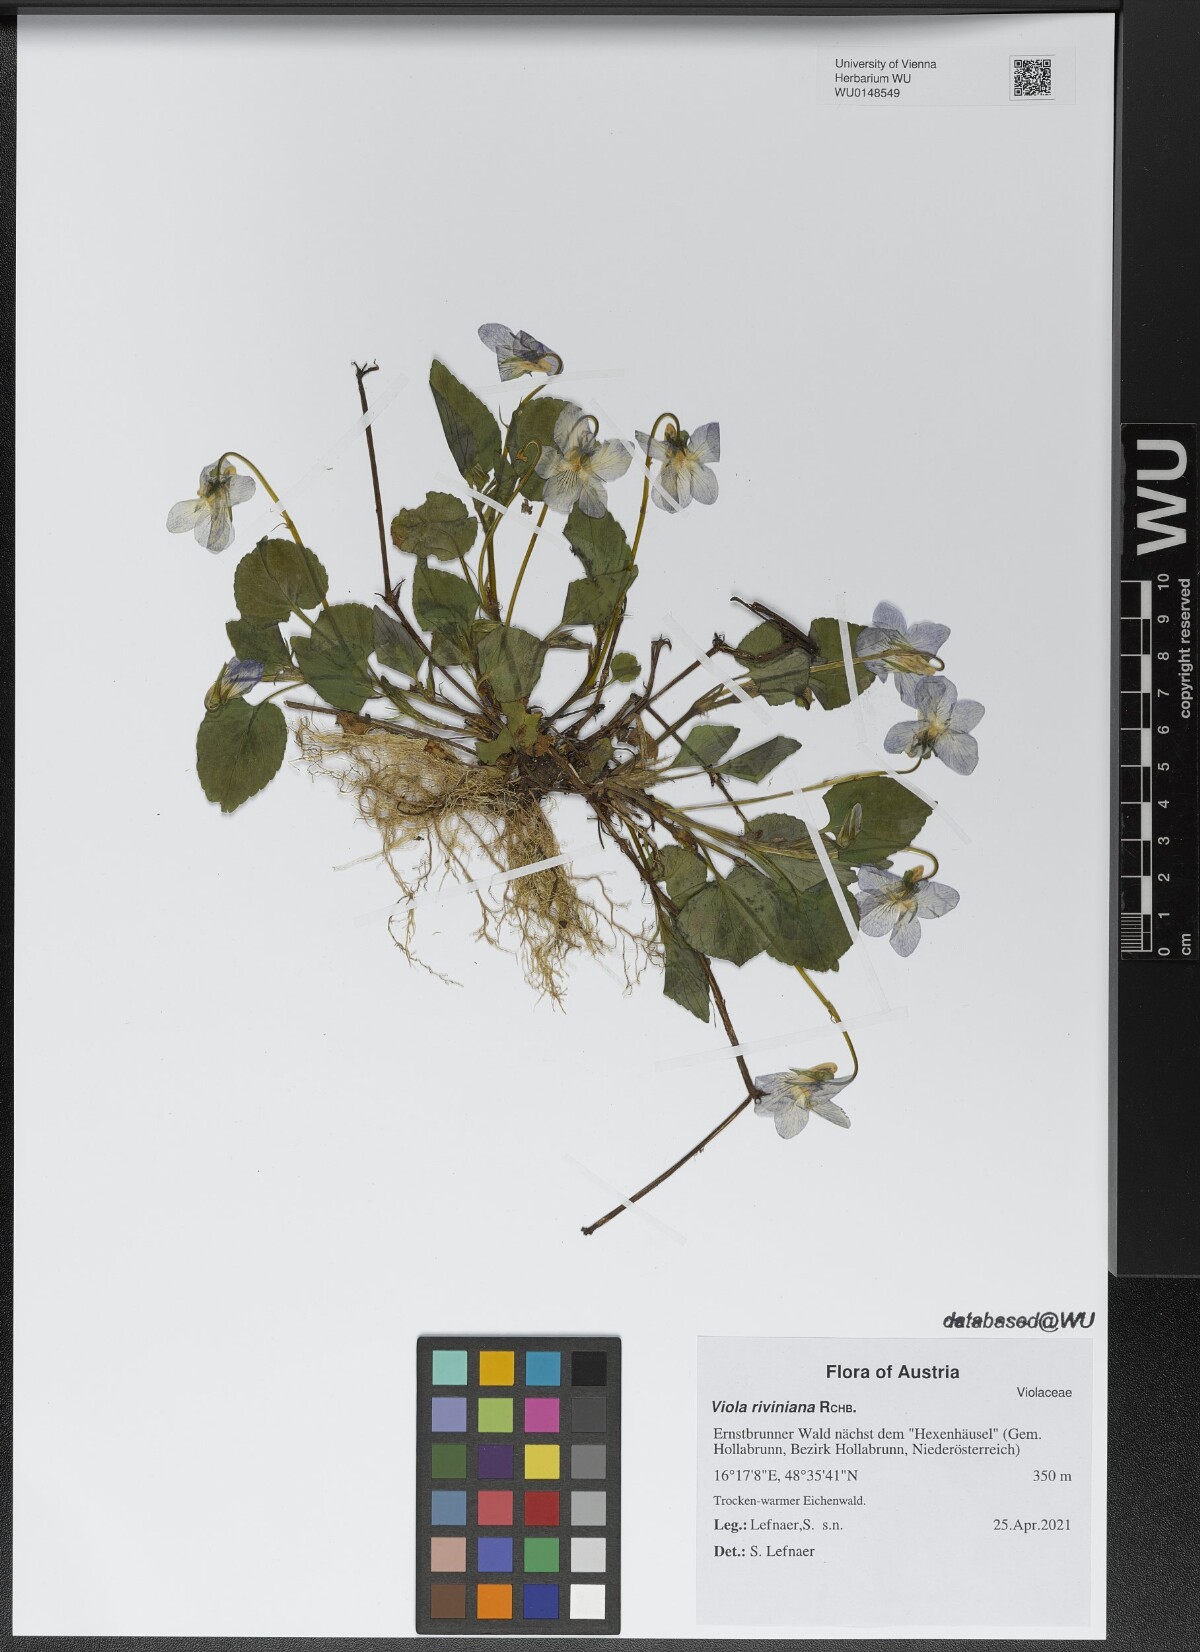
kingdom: Plantae
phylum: Tracheophyta
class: Magnoliopsida
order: Malpighiales
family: Violaceae
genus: Viola
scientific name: Viola riviniana
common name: Common dog-violet
